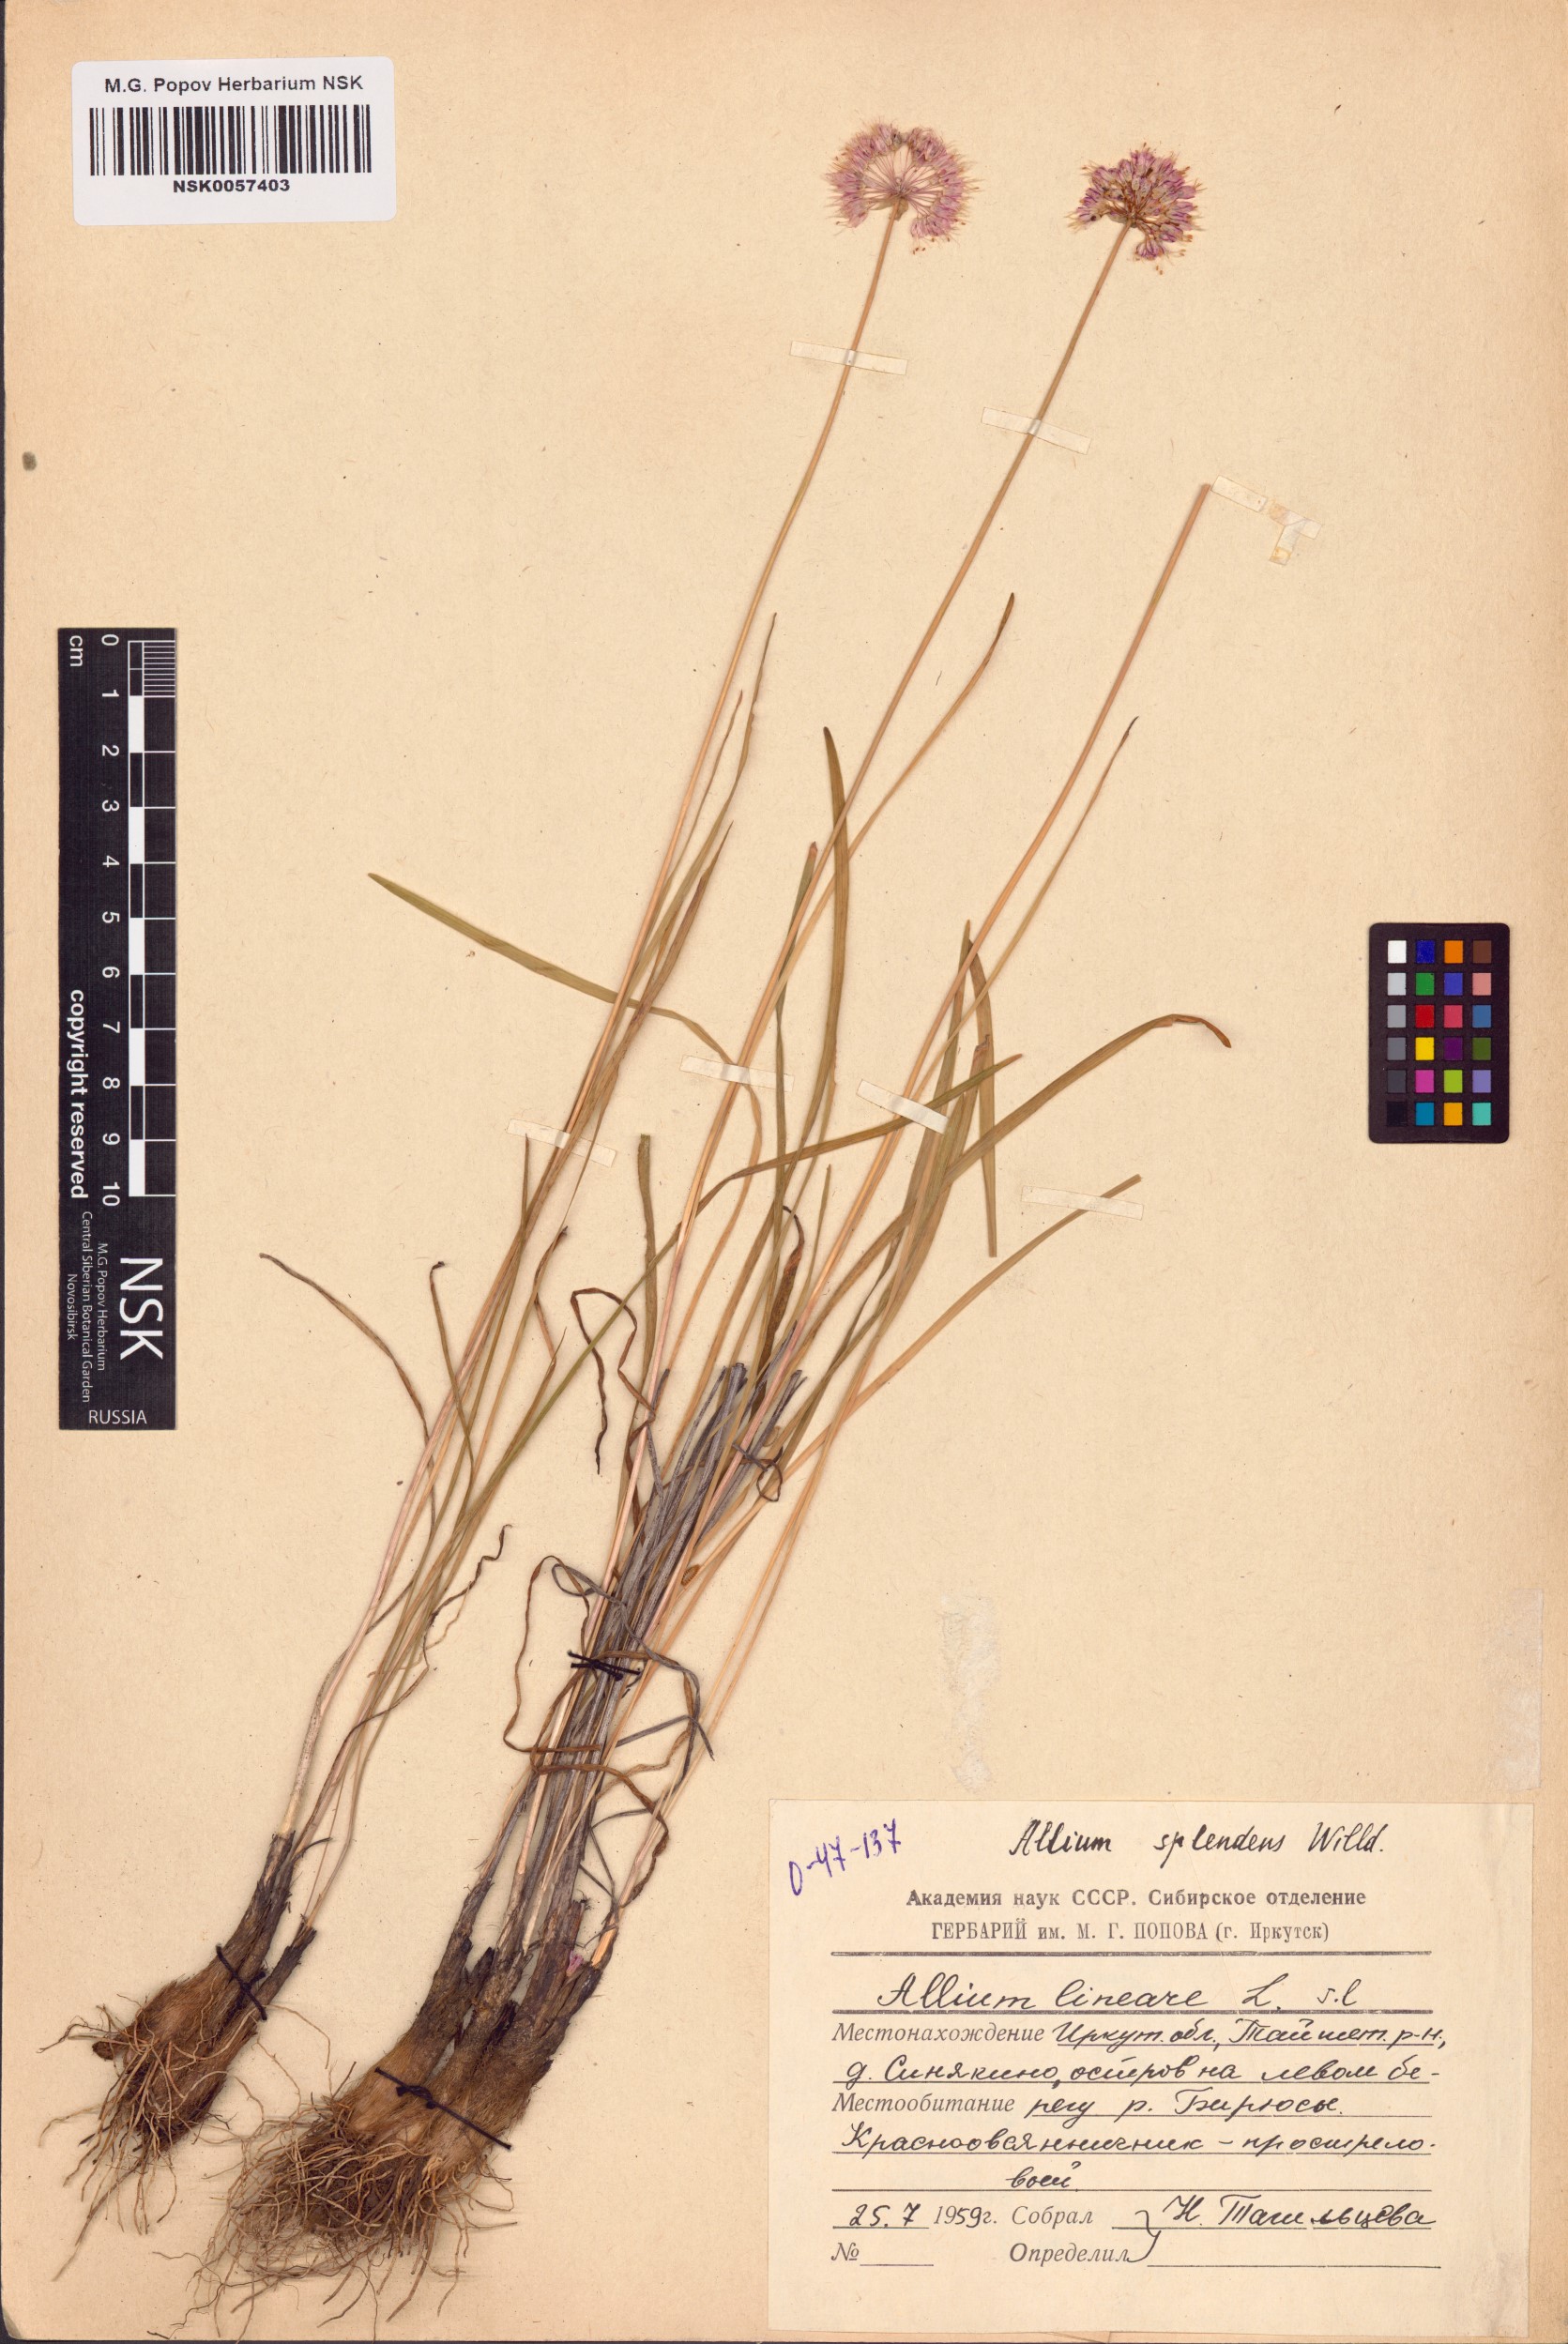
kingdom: Plantae
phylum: Tracheophyta
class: Liliopsida
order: Asparagales
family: Amaryllidaceae
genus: Allium
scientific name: Allium splendens
